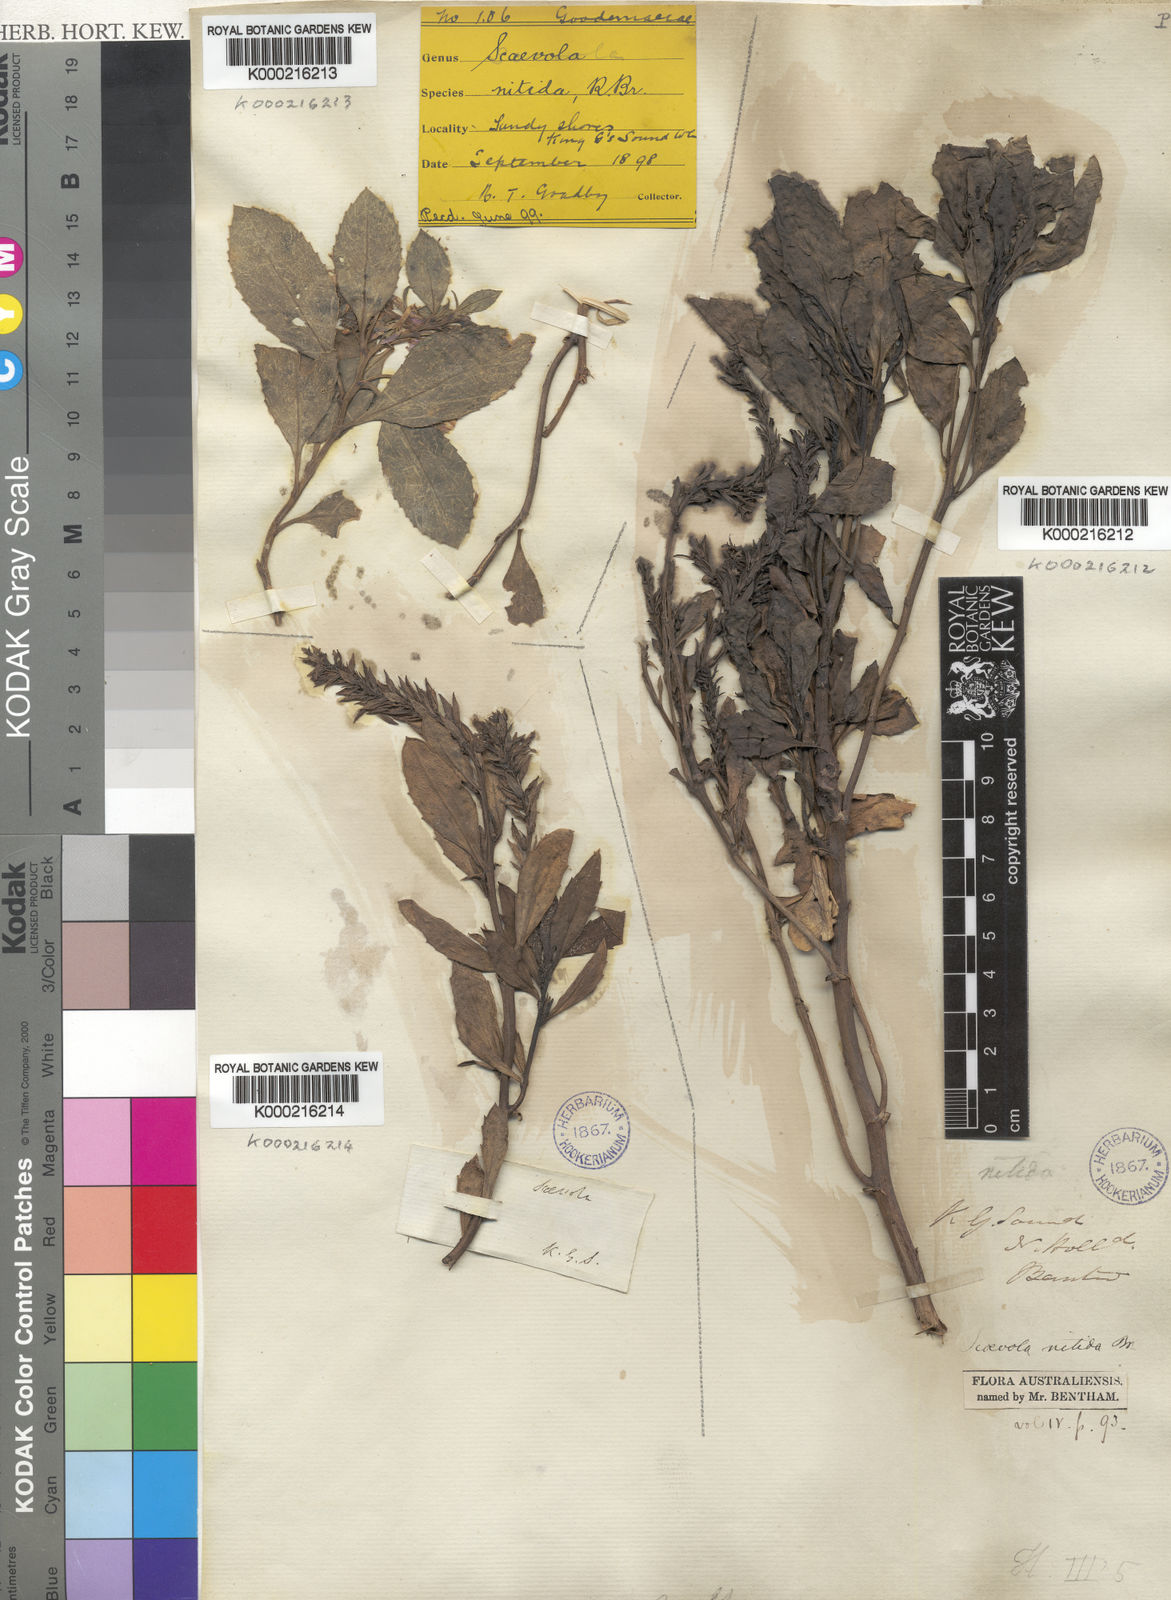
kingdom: Plantae
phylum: Tracheophyta
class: Magnoliopsida
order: Asterales
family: Goodeniaceae
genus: Scaevola
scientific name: Scaevola nitida
